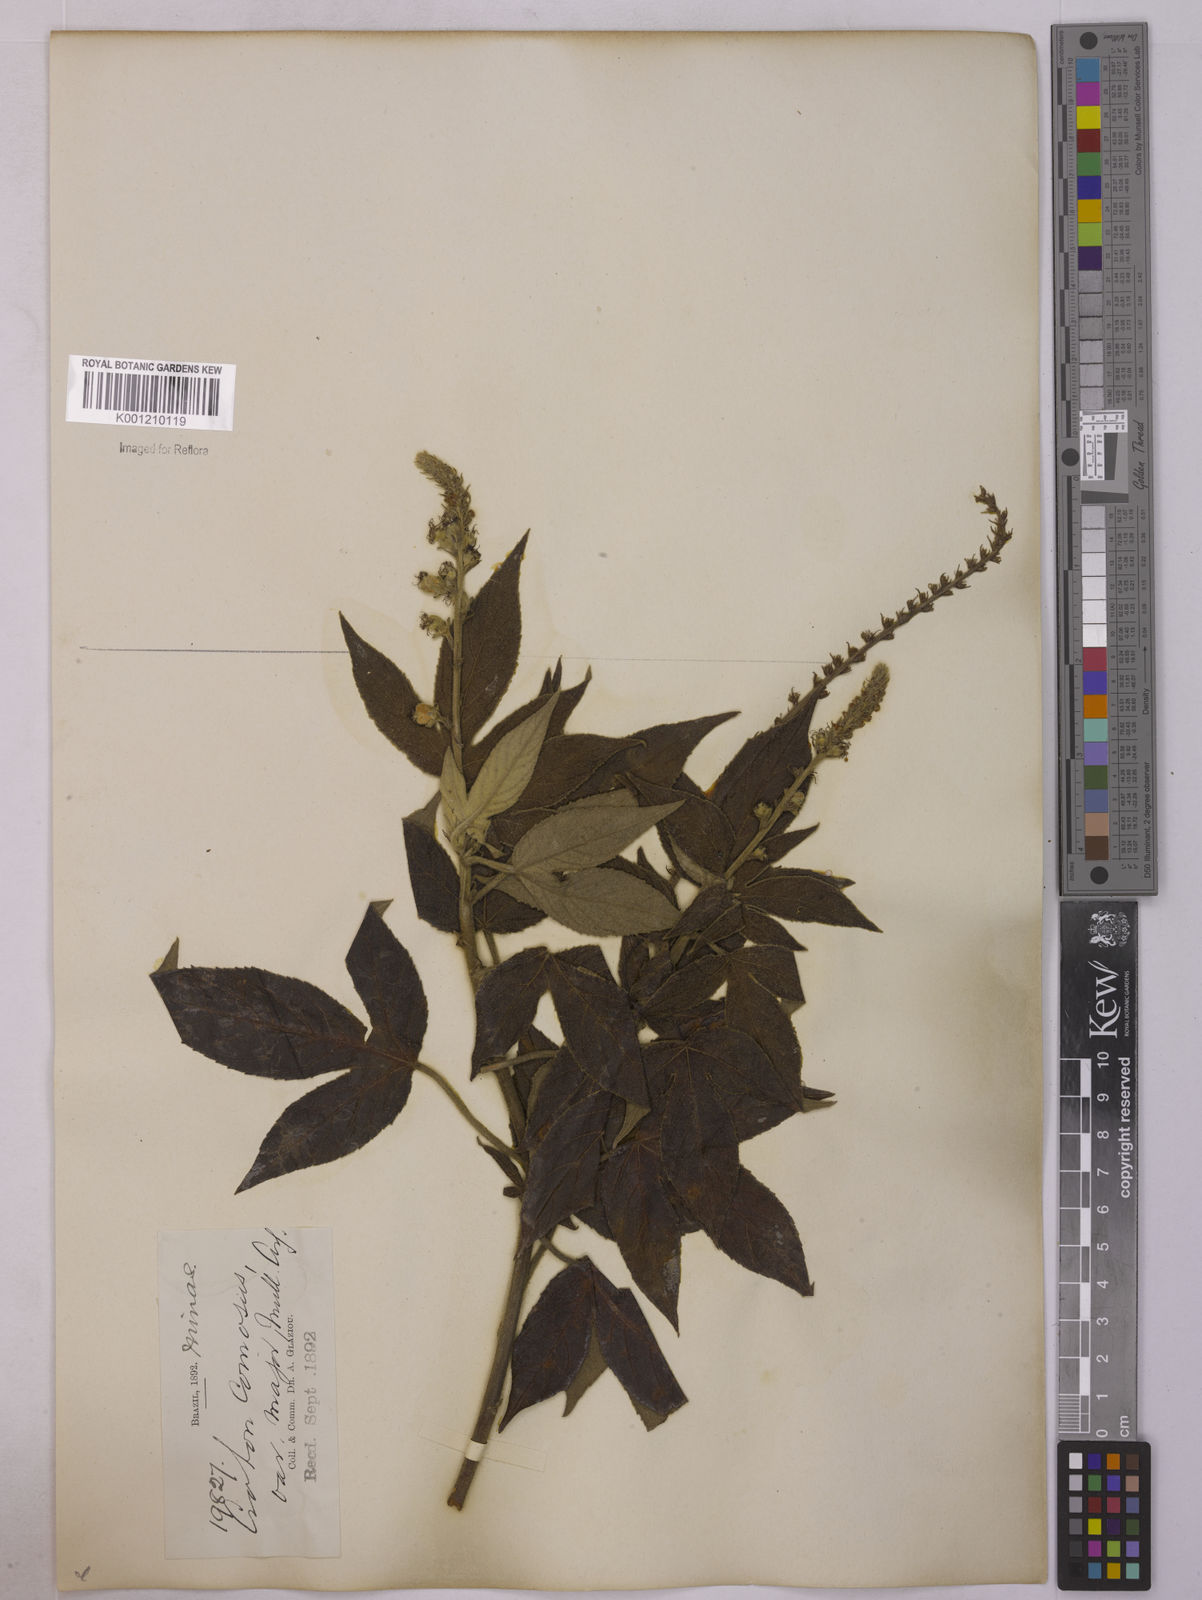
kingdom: Plantae
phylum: Tracheophyta
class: Magnoliopsida
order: Malpighiales
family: Euphorbiaceae
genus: Astraea
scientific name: Astraea
